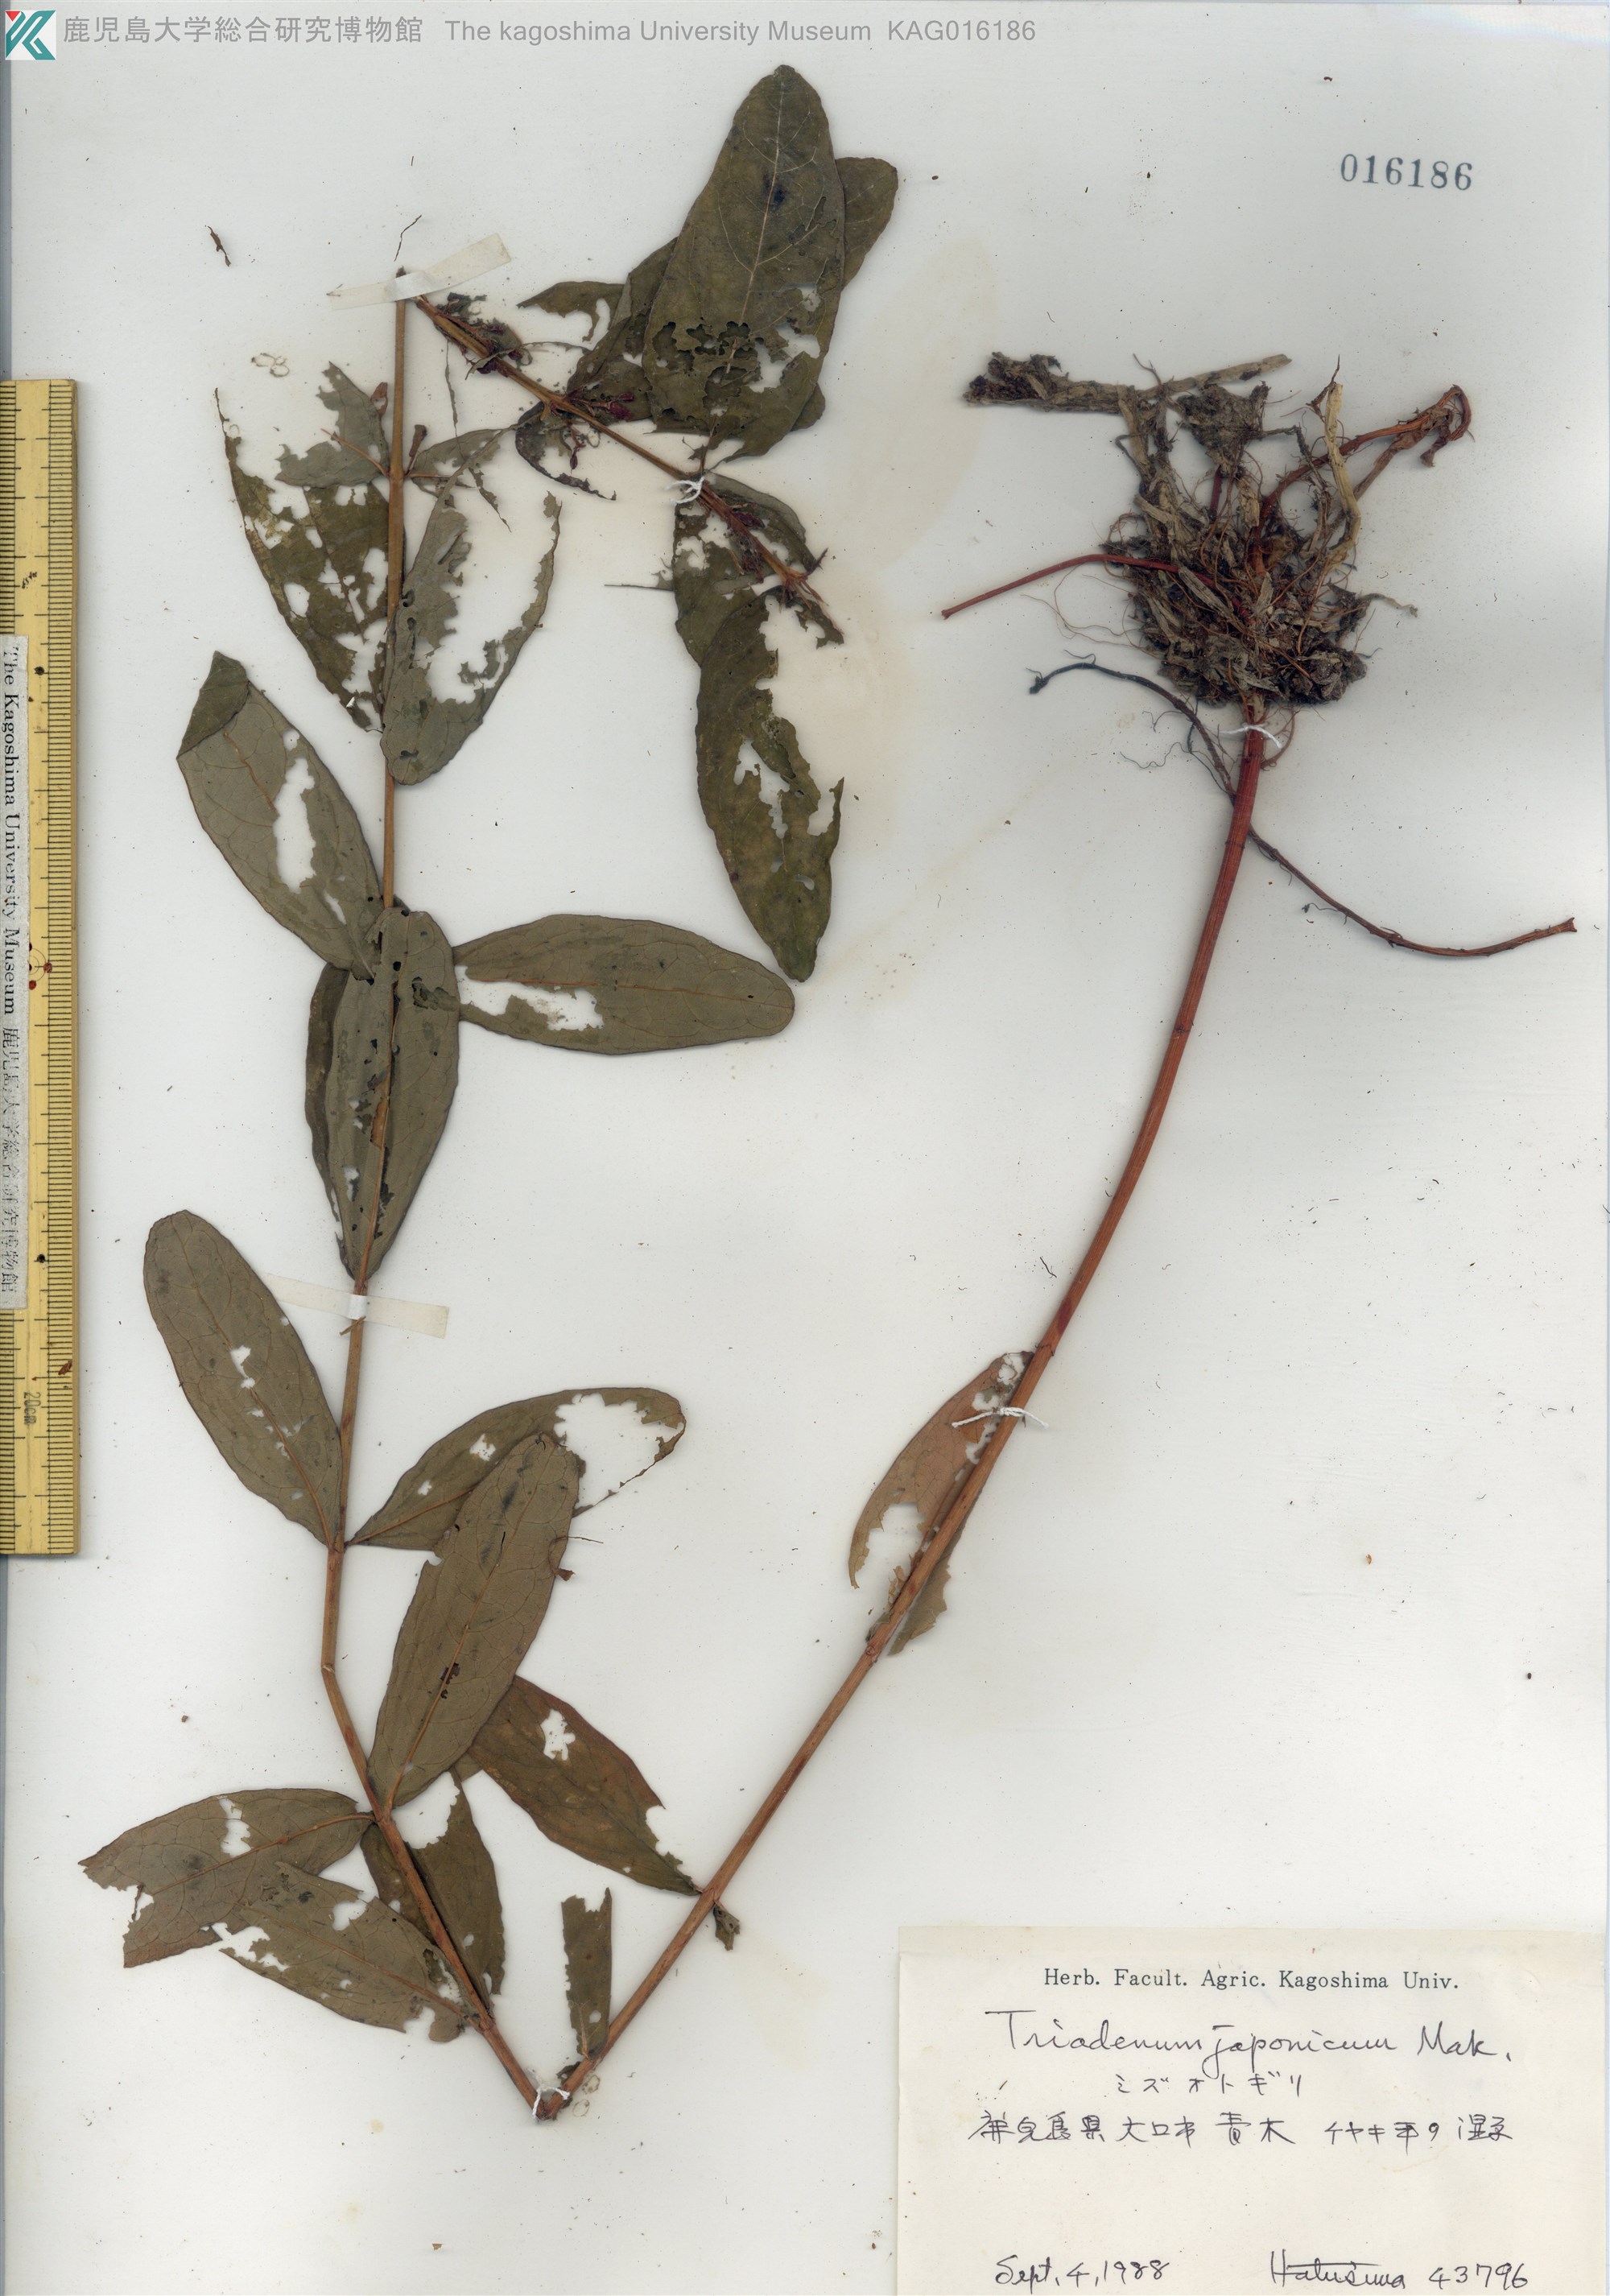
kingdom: Plantae
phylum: Tracheophyta
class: Magnoliopsida
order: Malpighiales
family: Hypericaceae
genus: Triadenum
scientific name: Triadenum japonicum
